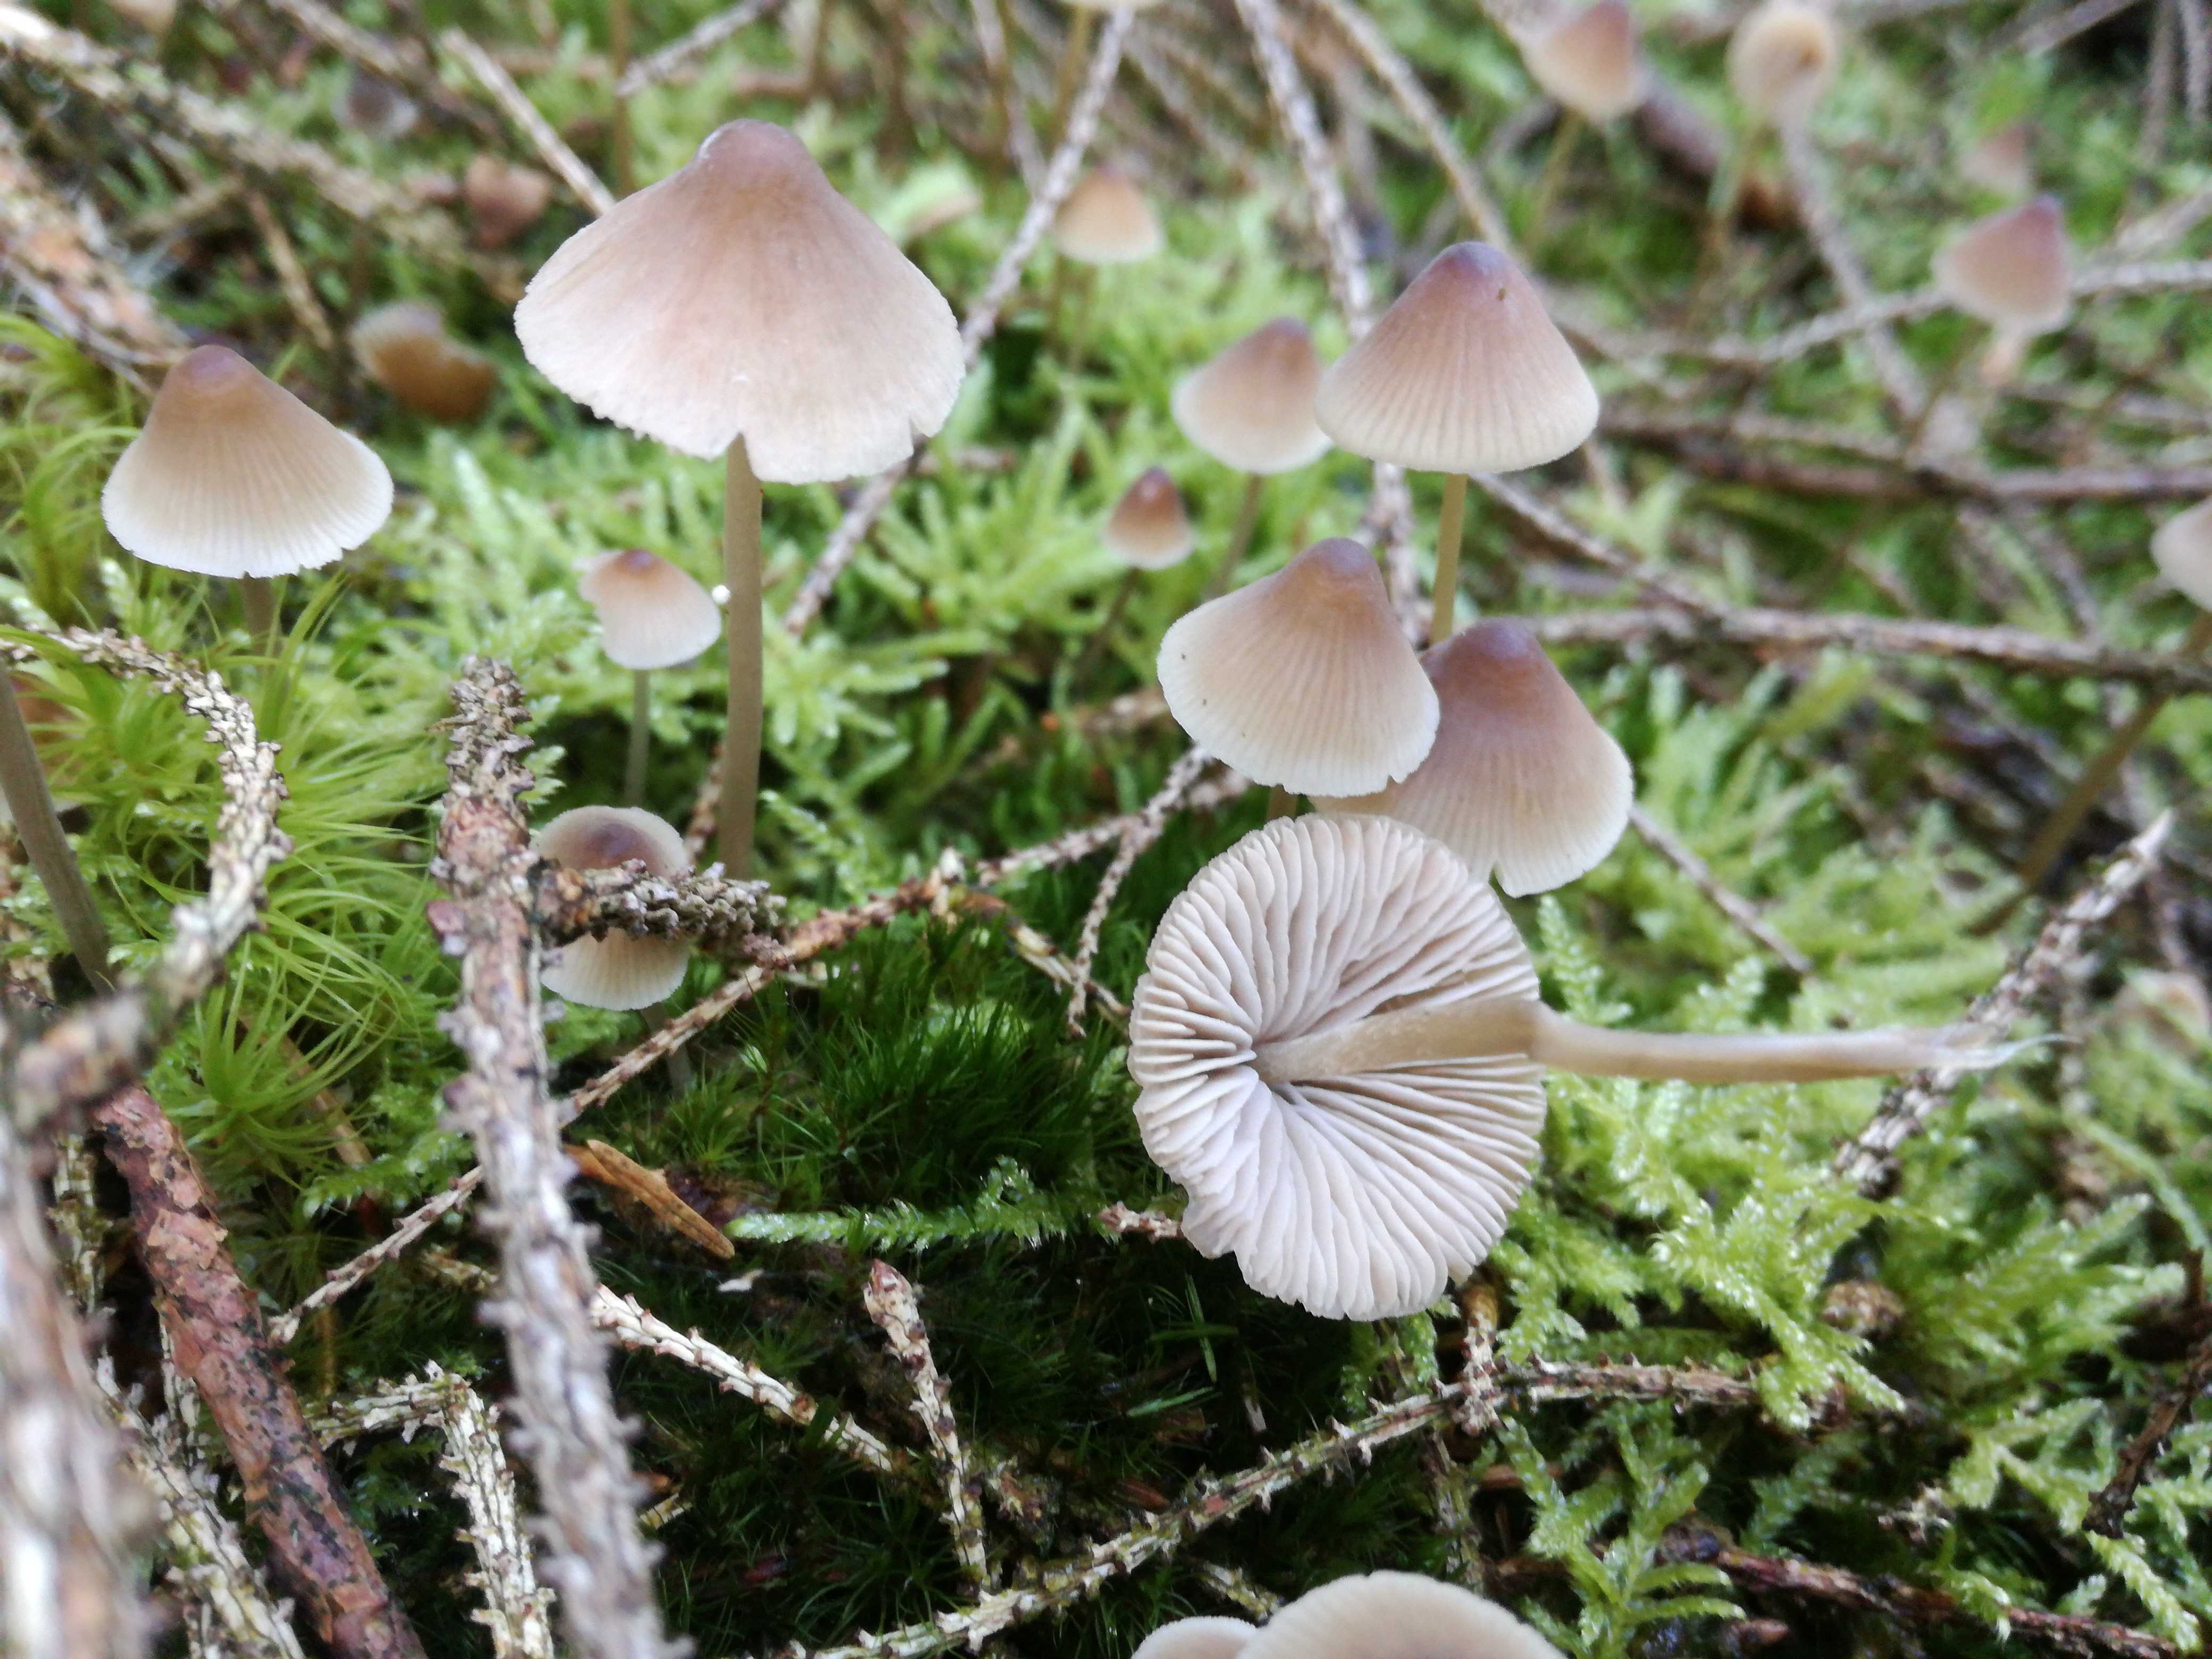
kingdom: Fungi
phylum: Basidiomycota
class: Agaricomycetes
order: Agaricales
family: Mycenaceae
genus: Mycena
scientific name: Mycena filopes
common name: Iodine bonnet
